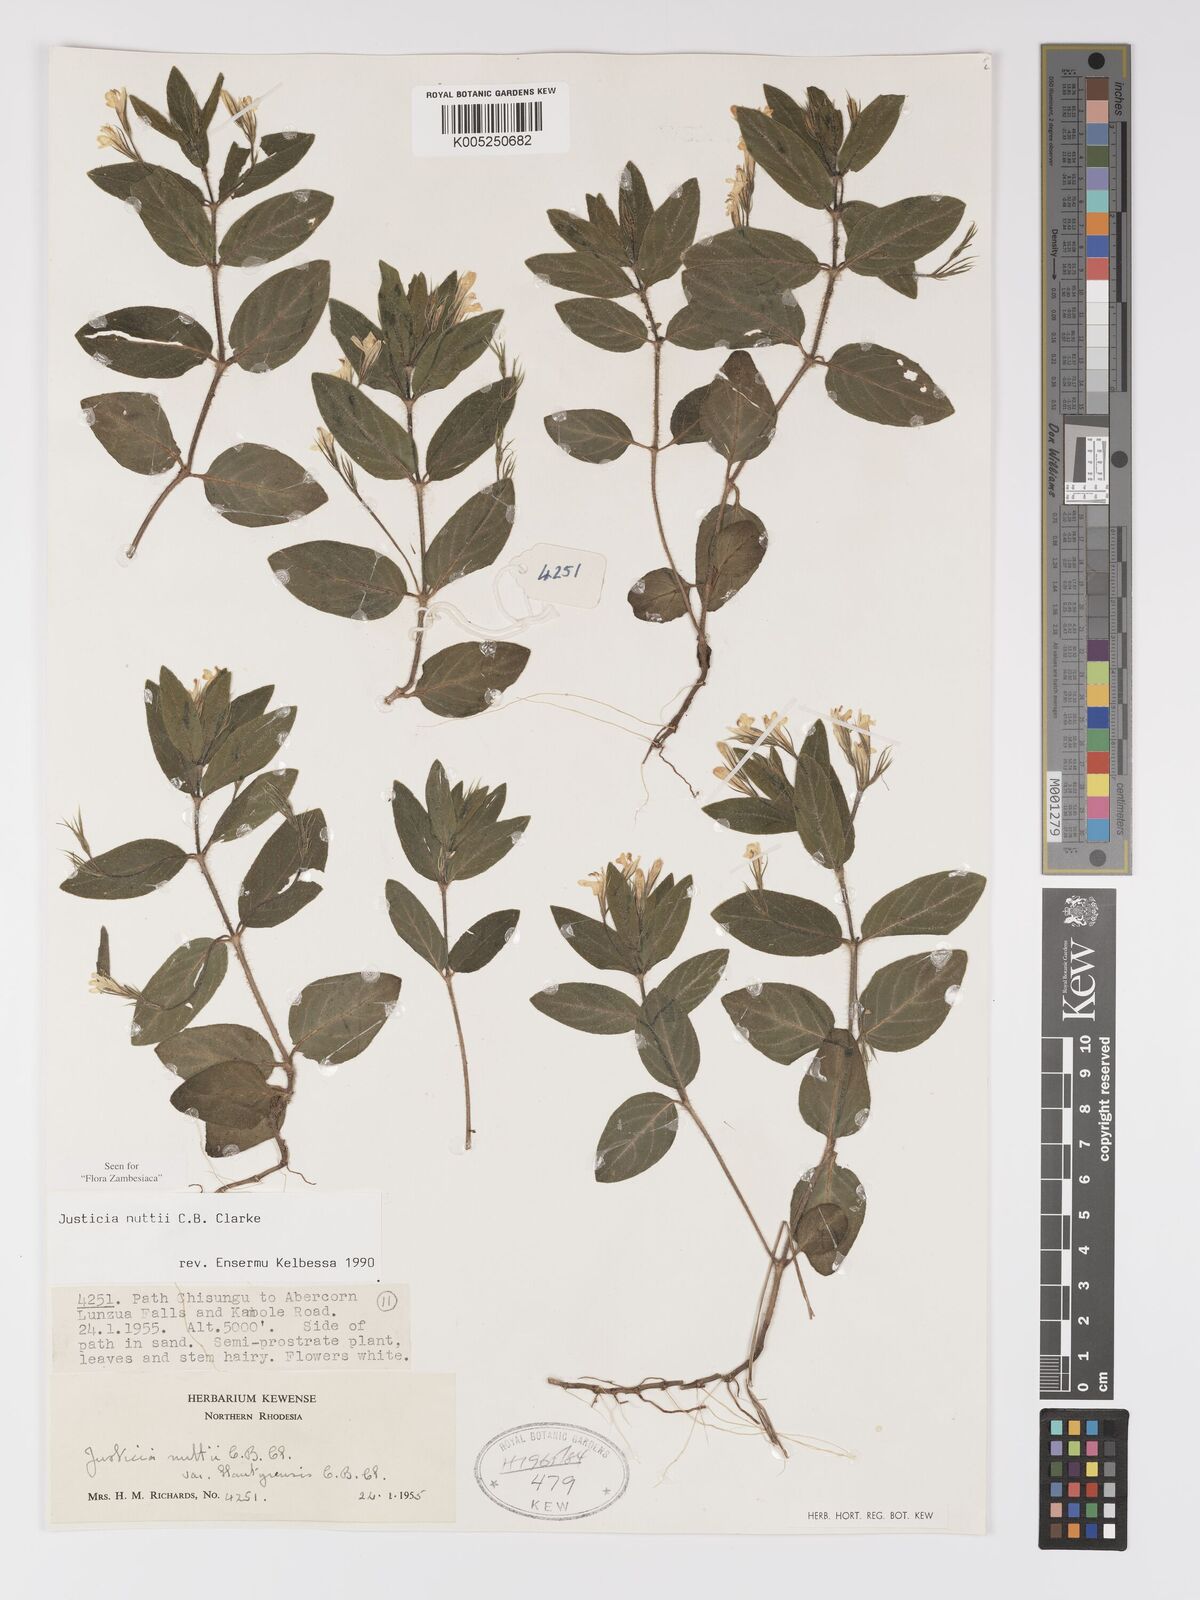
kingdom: Plantae
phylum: Tracheophyta
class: Magnoliopsida
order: Lamiales
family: Acanthaceae
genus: Justicia
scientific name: Justicia nuttii
